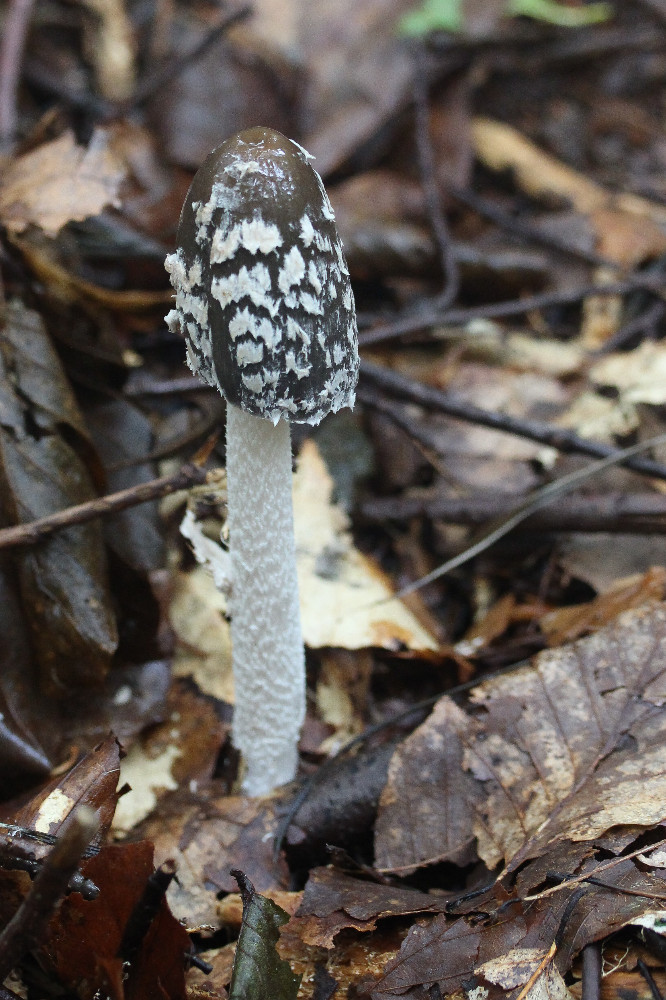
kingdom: Fungi
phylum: Basidiomycota
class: Agaricomycetes
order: Agaricales
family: Psathyrellaceae
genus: Coprinopsis
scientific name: Coprinopsis picacea
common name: skade-blækhat
